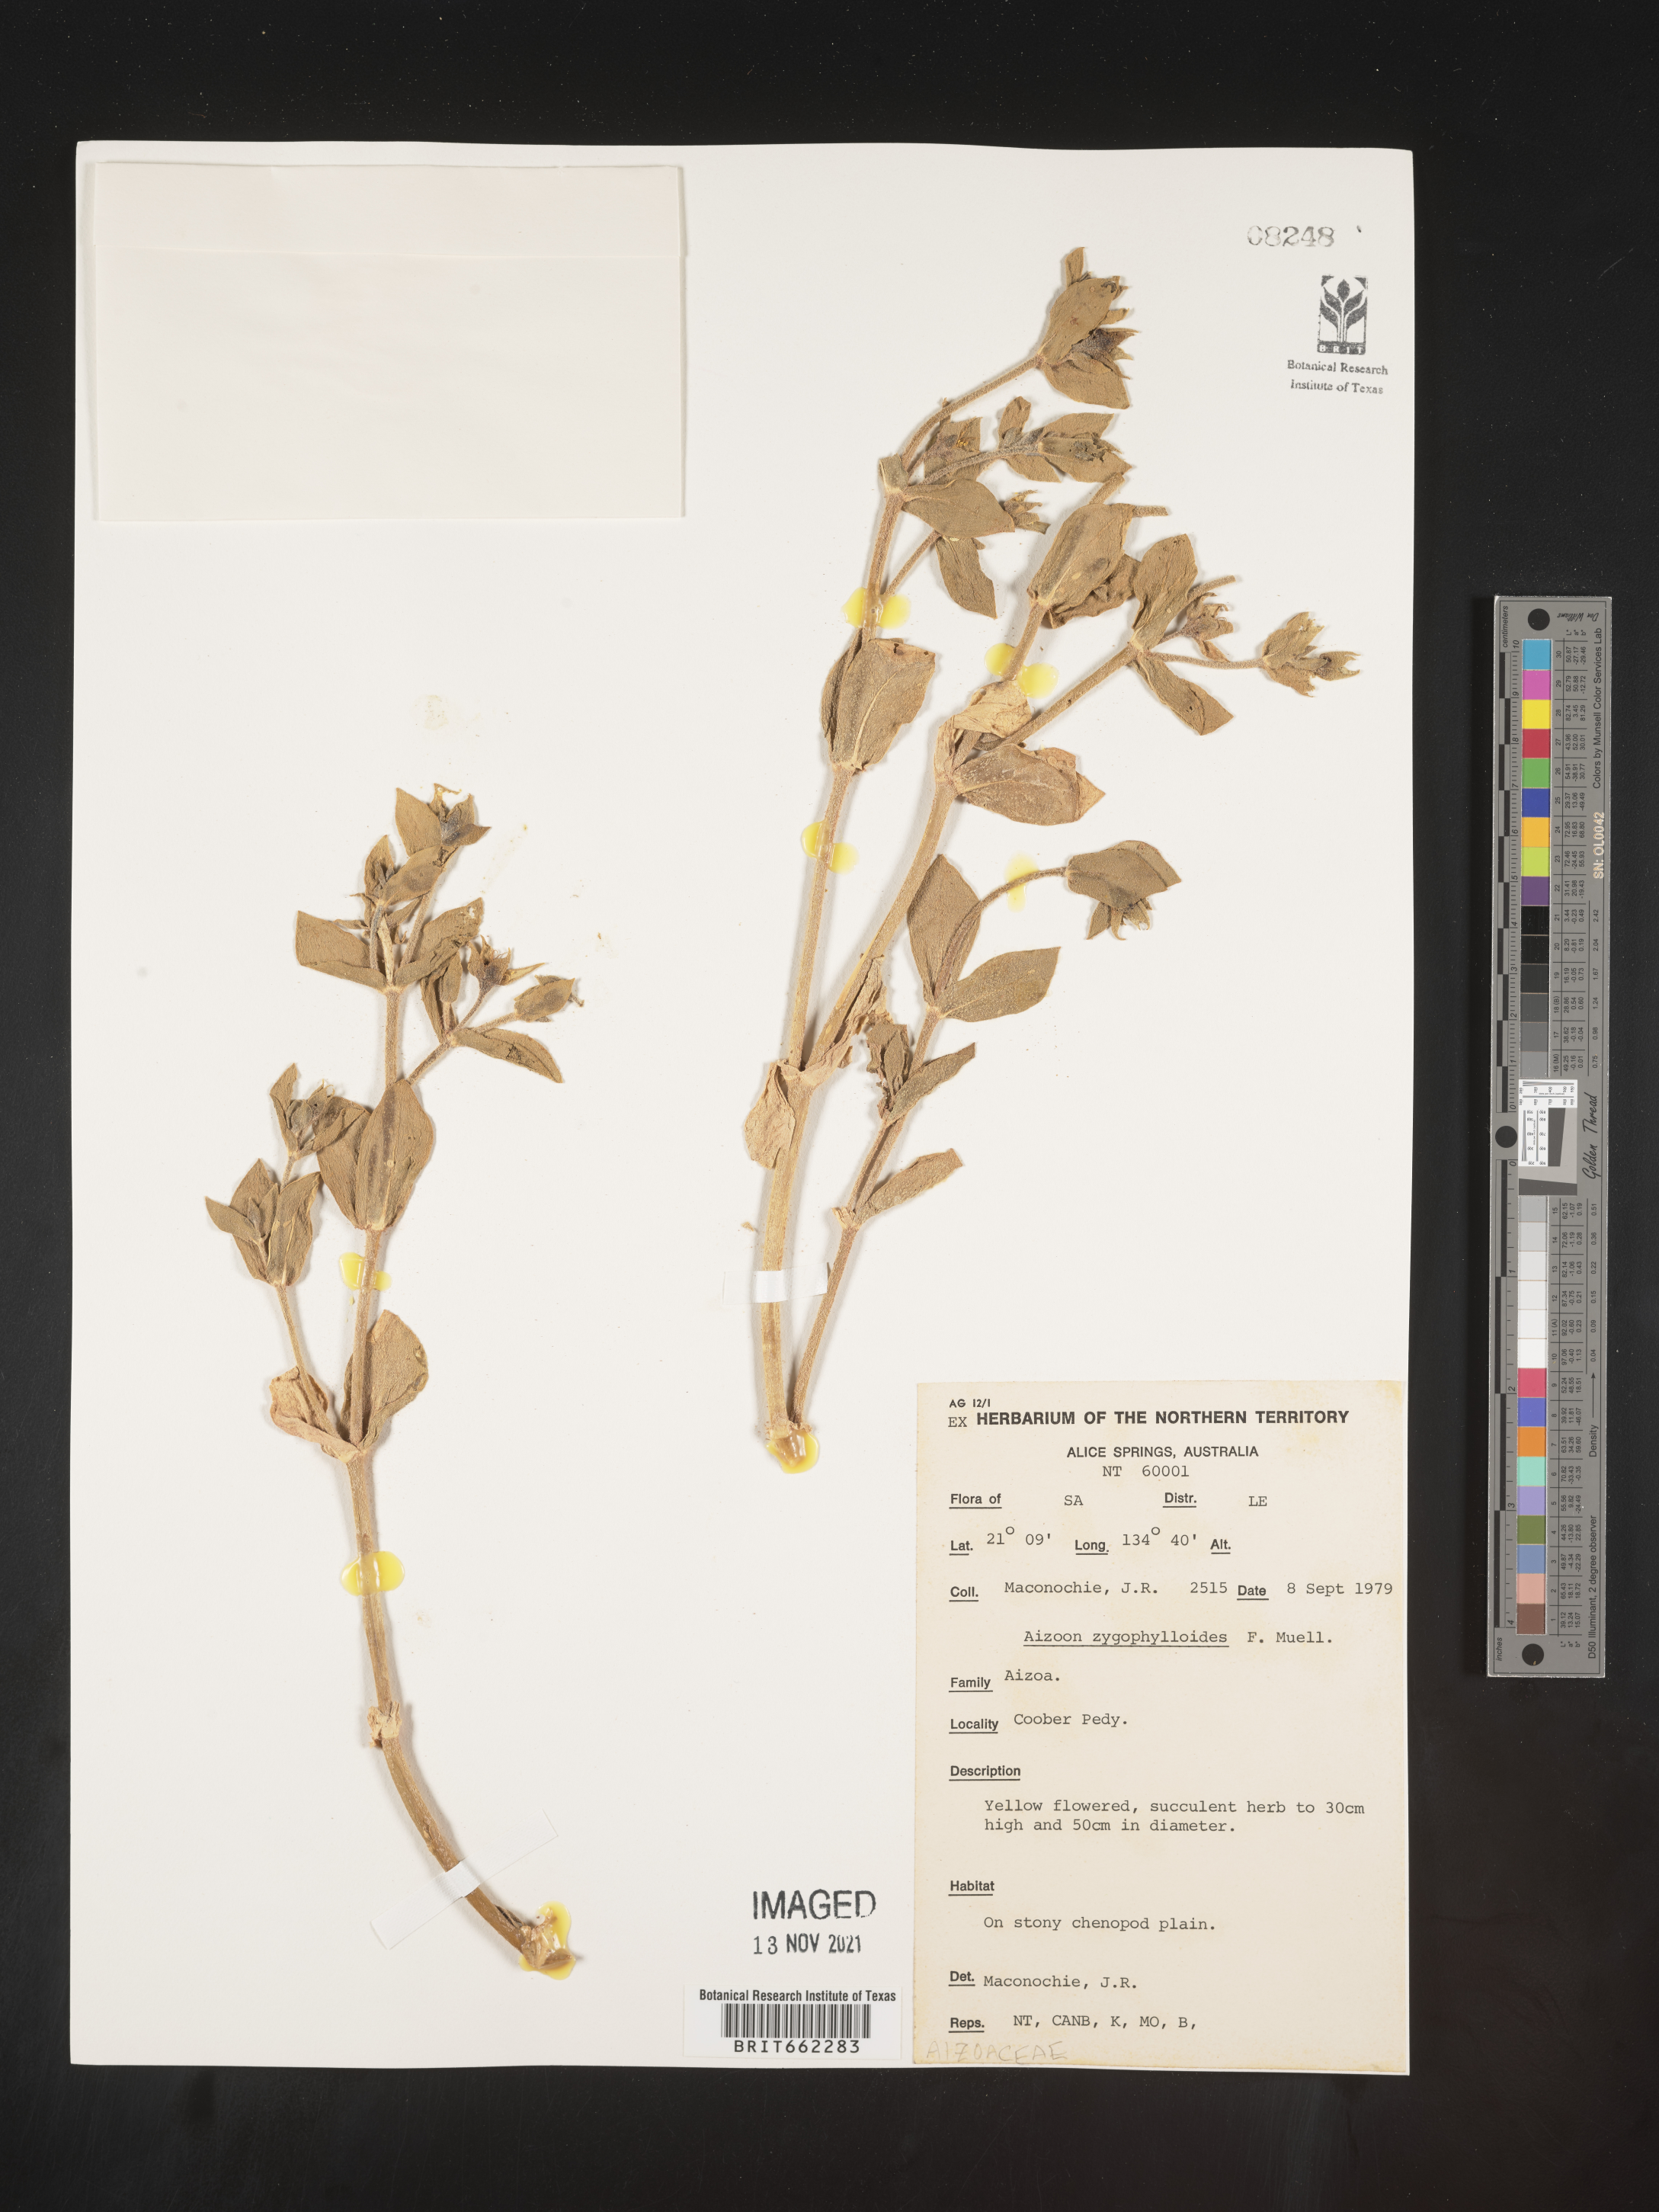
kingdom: Plantae
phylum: Tracheophyta
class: Magnoliopsida
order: Caryophyllales
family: Aizoaceae
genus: Aizoon
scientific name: Aizoon
